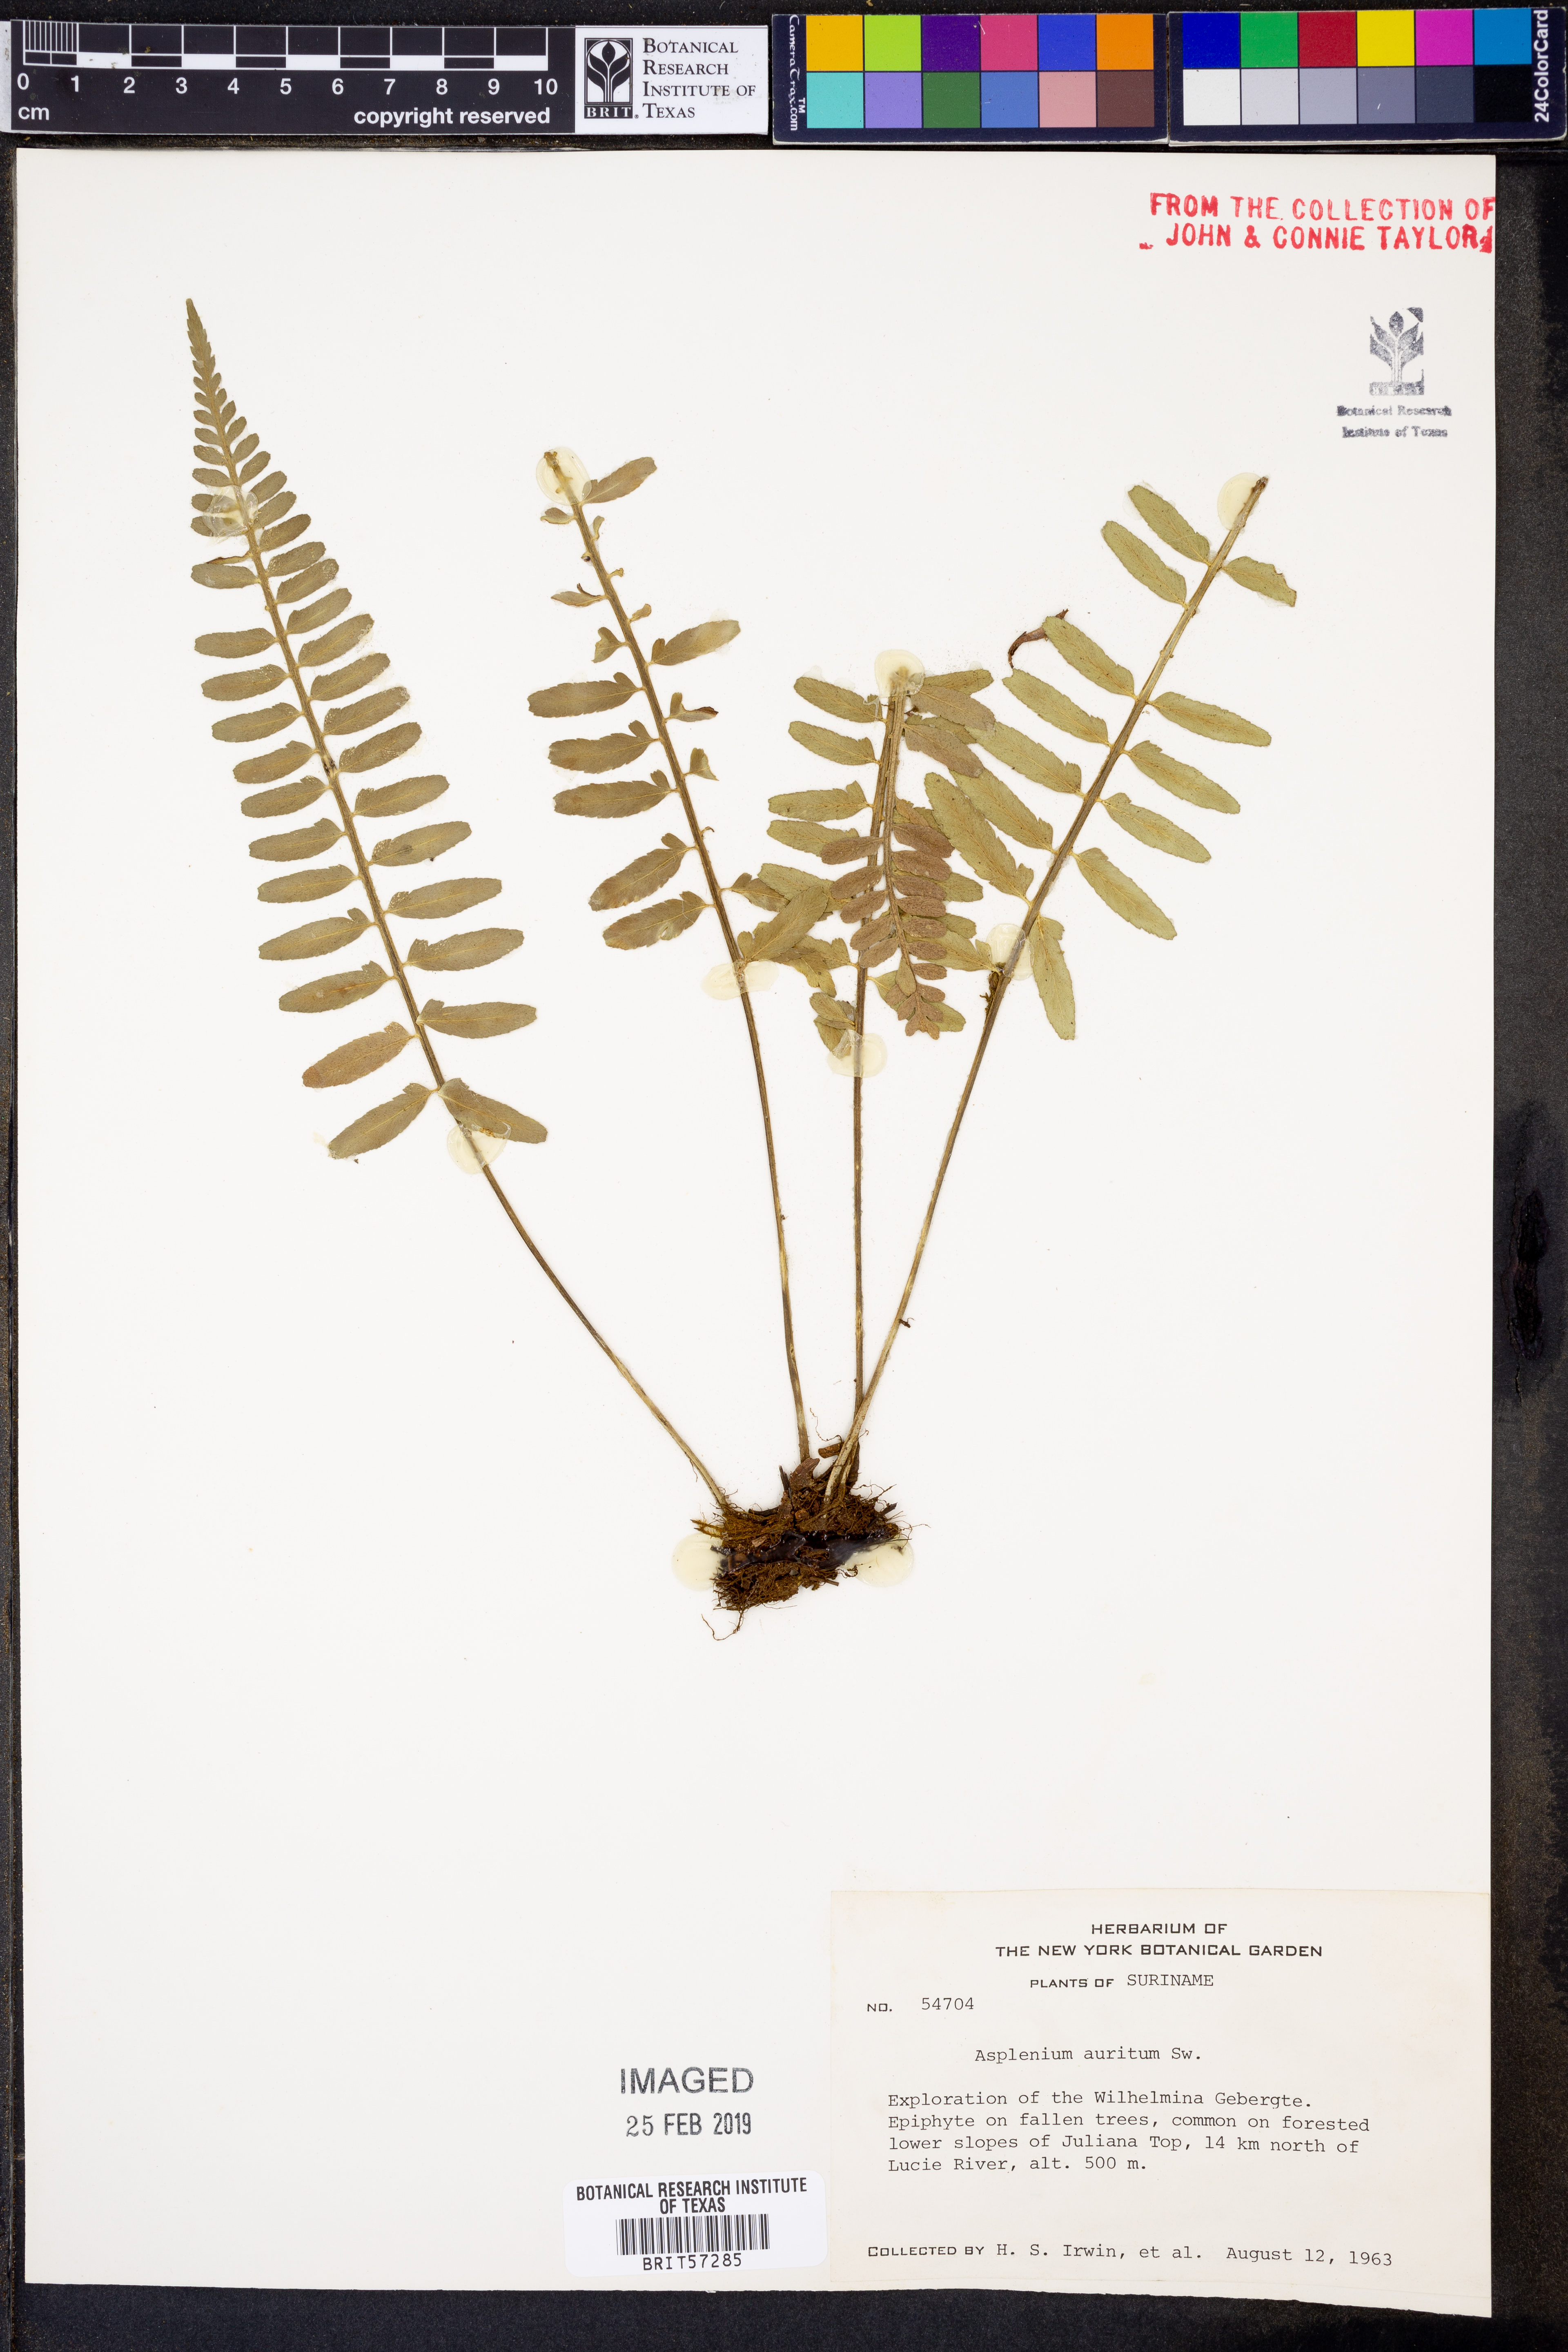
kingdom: Plantae
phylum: Tracheophyta
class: Polypodiopsida
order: Polypodiales
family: Aspleniaceae
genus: Asplenium
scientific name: Asplenium bipartitum
